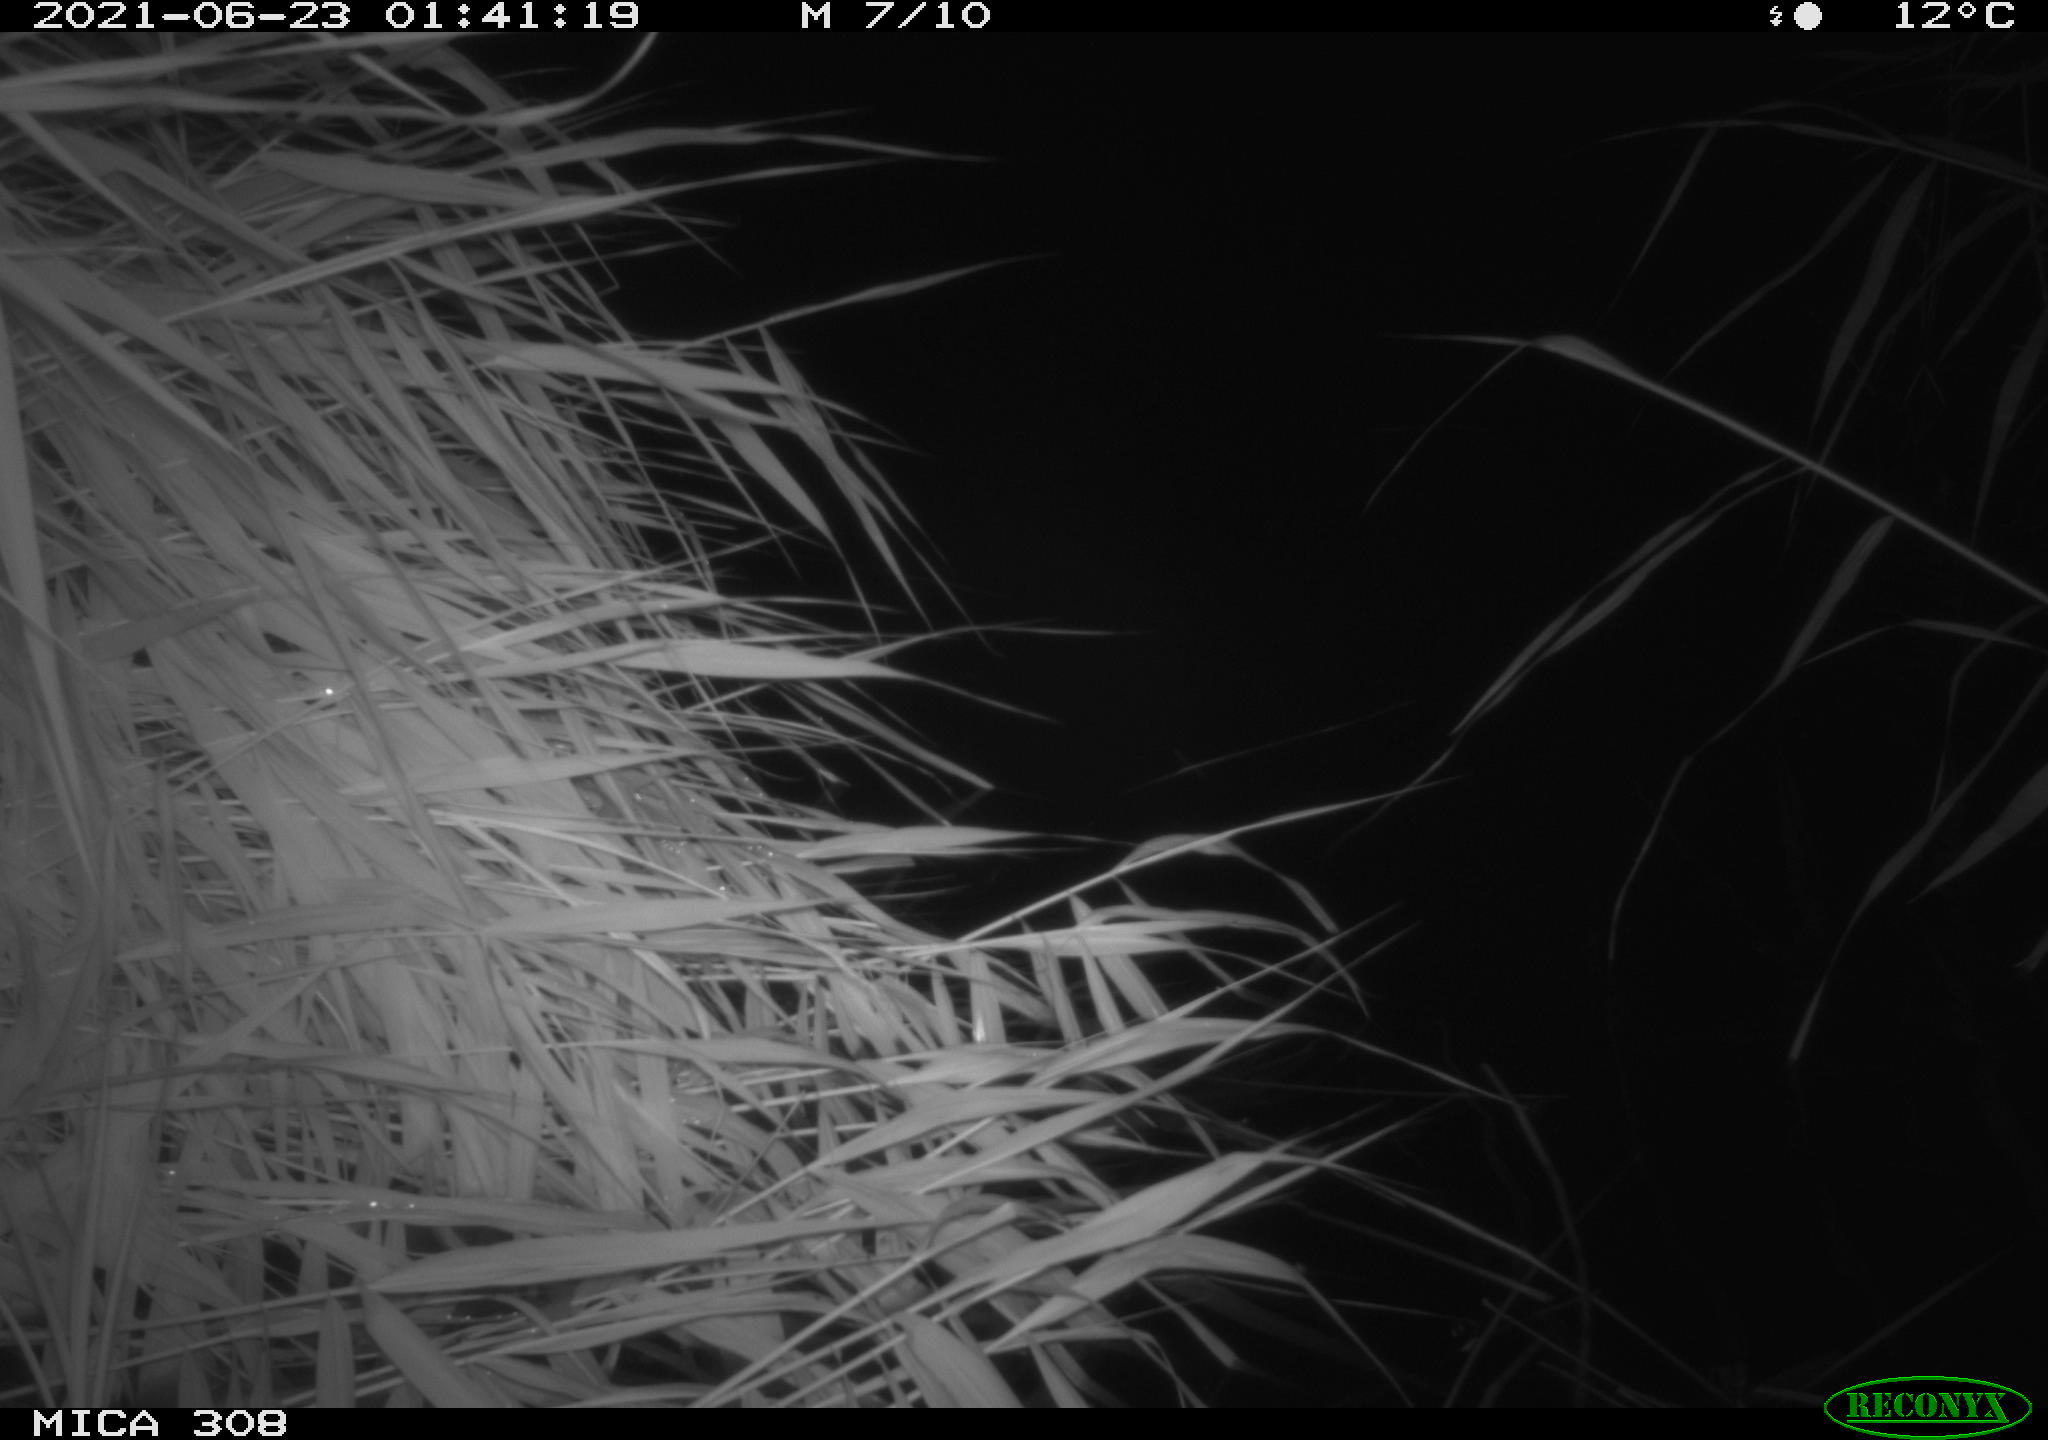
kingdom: Animalia
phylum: Chordata
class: Aves
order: Anseriformes
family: Anatidae
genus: Anas
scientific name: Anas platyrhynchos
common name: Mallard
